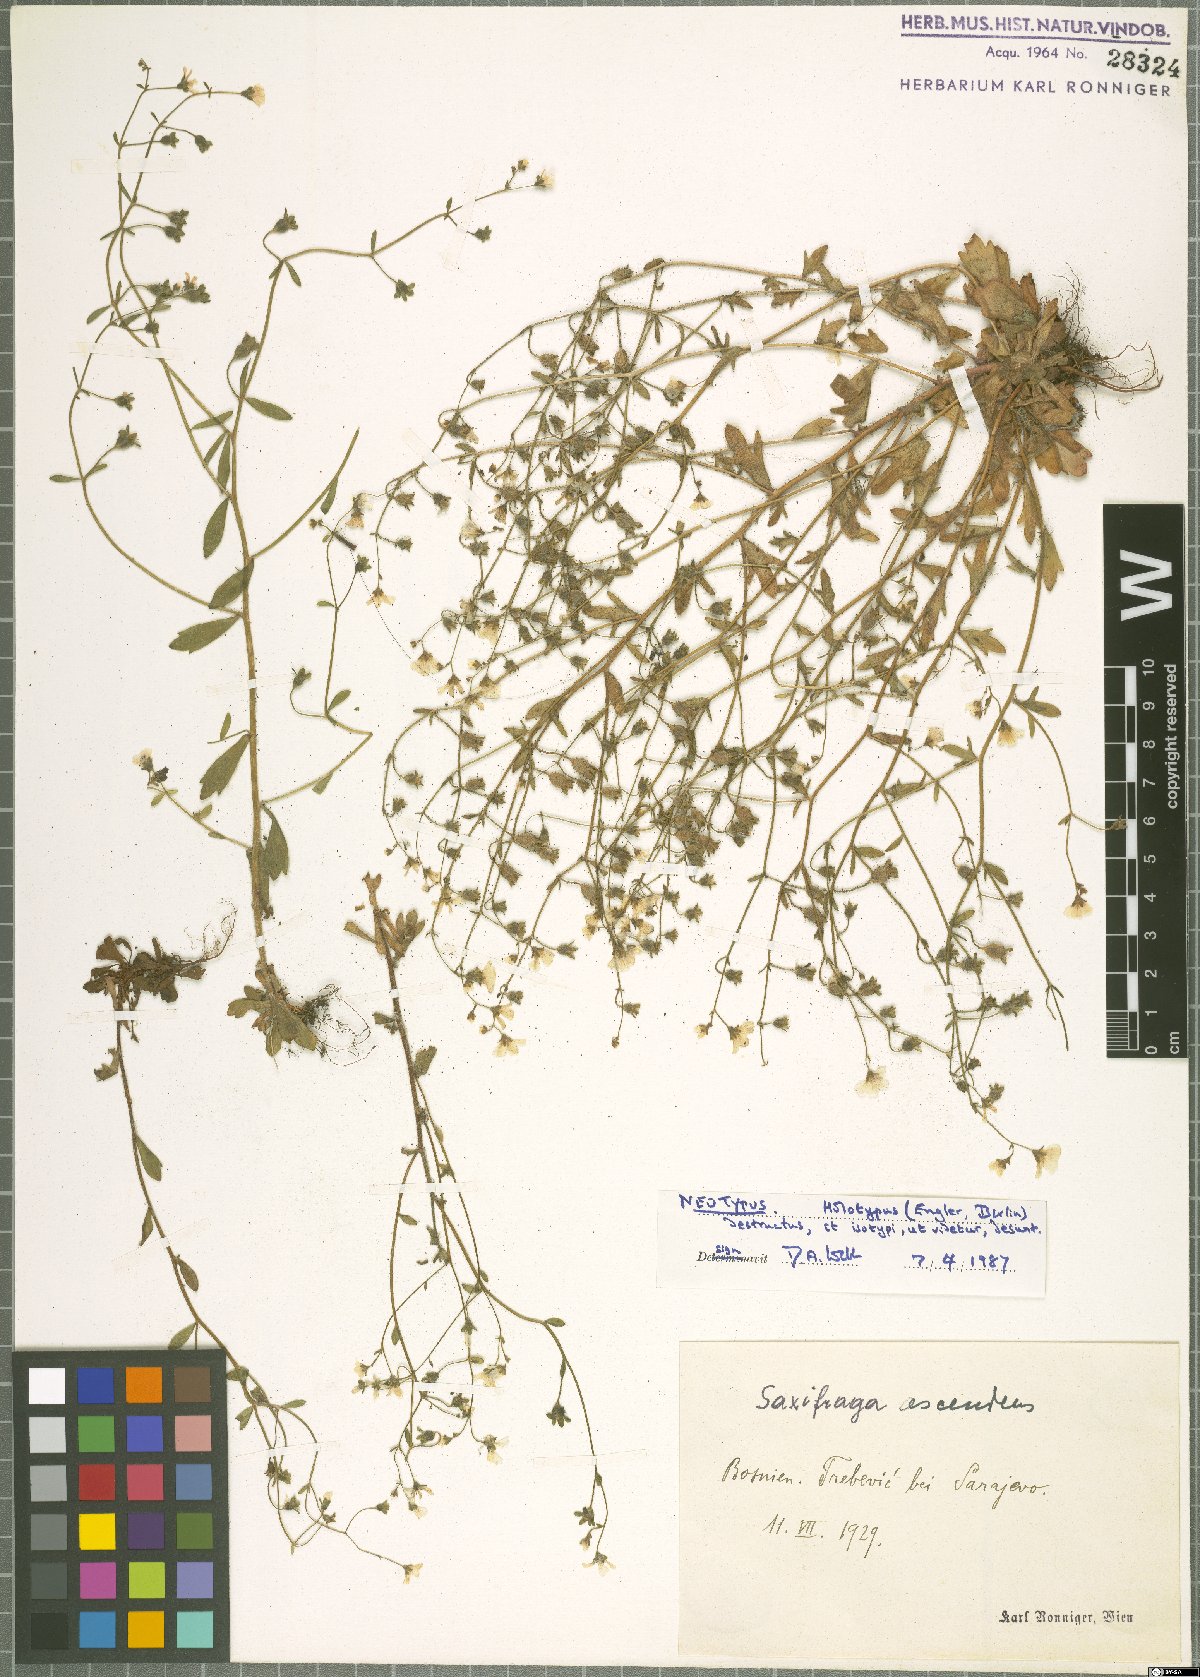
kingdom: Plantae
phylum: Tracheophyta
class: Magnoliopsida
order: Saxifragales
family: Saxifragaceae
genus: Saxifraga
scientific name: Saxifraga adscendens
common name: Ascending saxifrage
